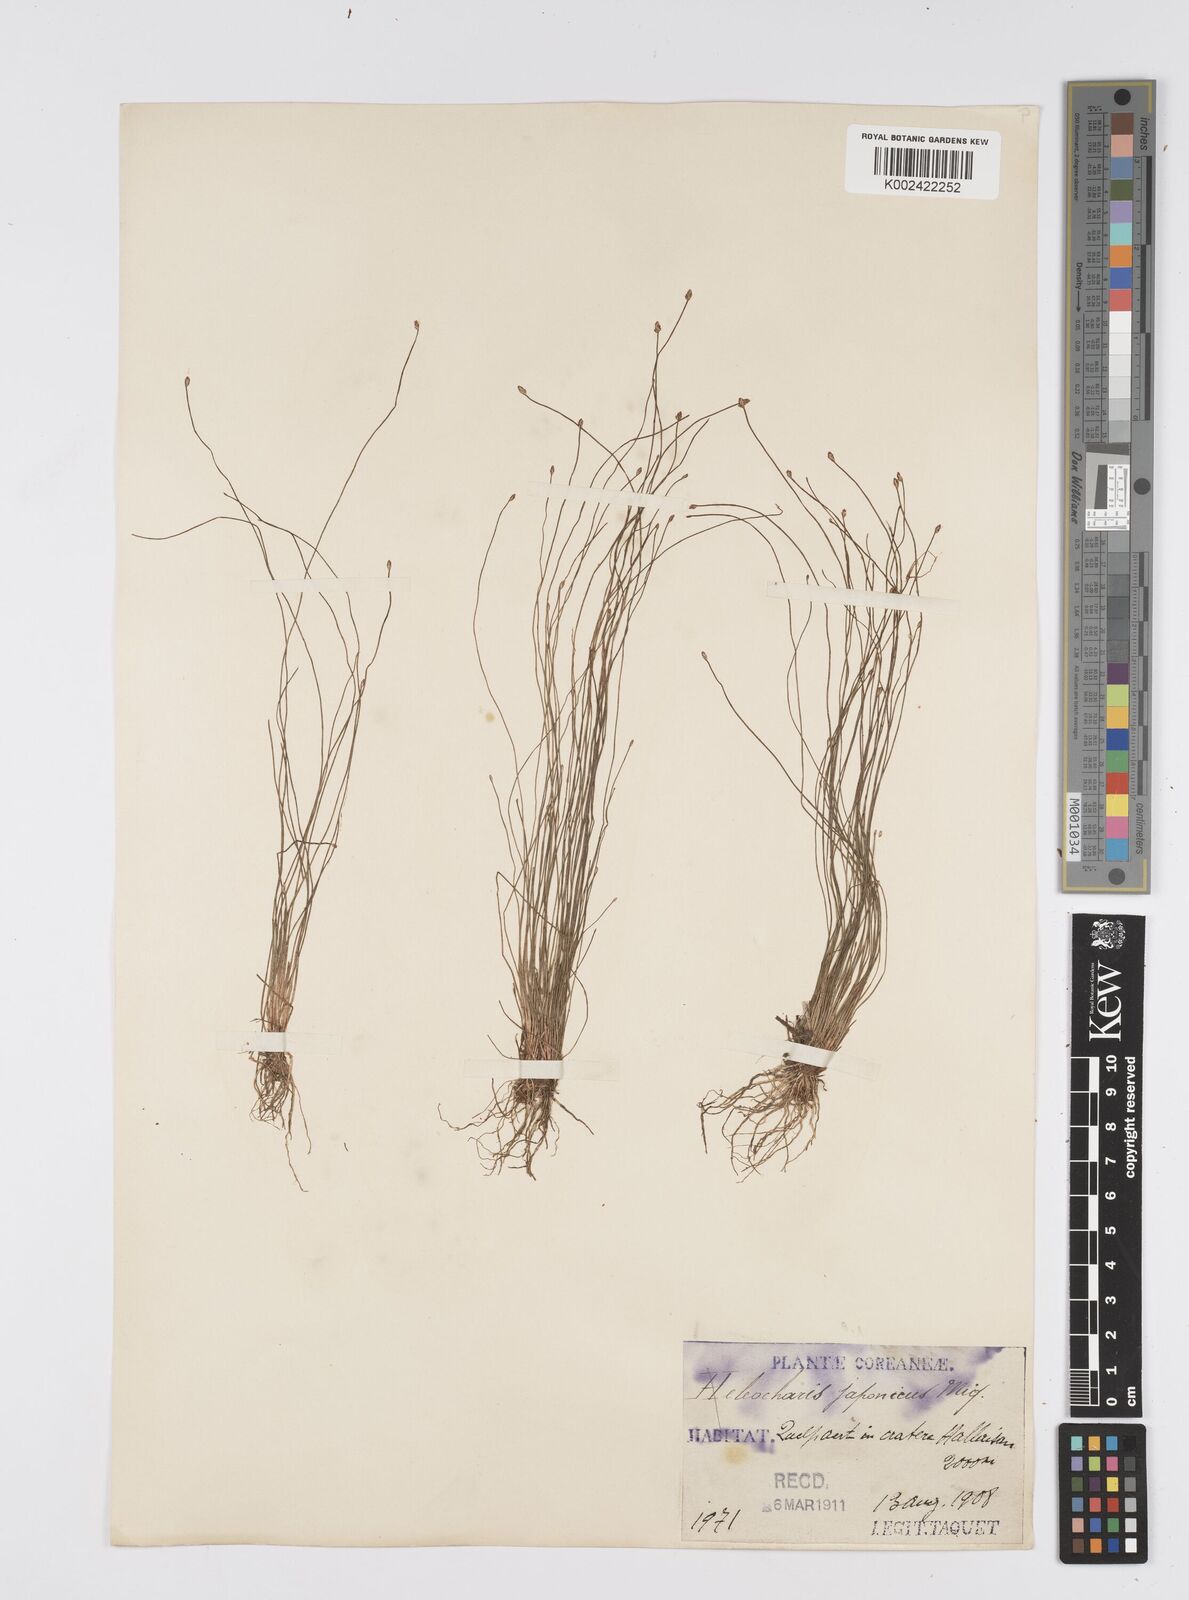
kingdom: Plantae
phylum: Tracheophyta
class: Liliopsida
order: Poales
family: Cyperaceae
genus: Eleocharis
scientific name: Eleocharis pellucida
